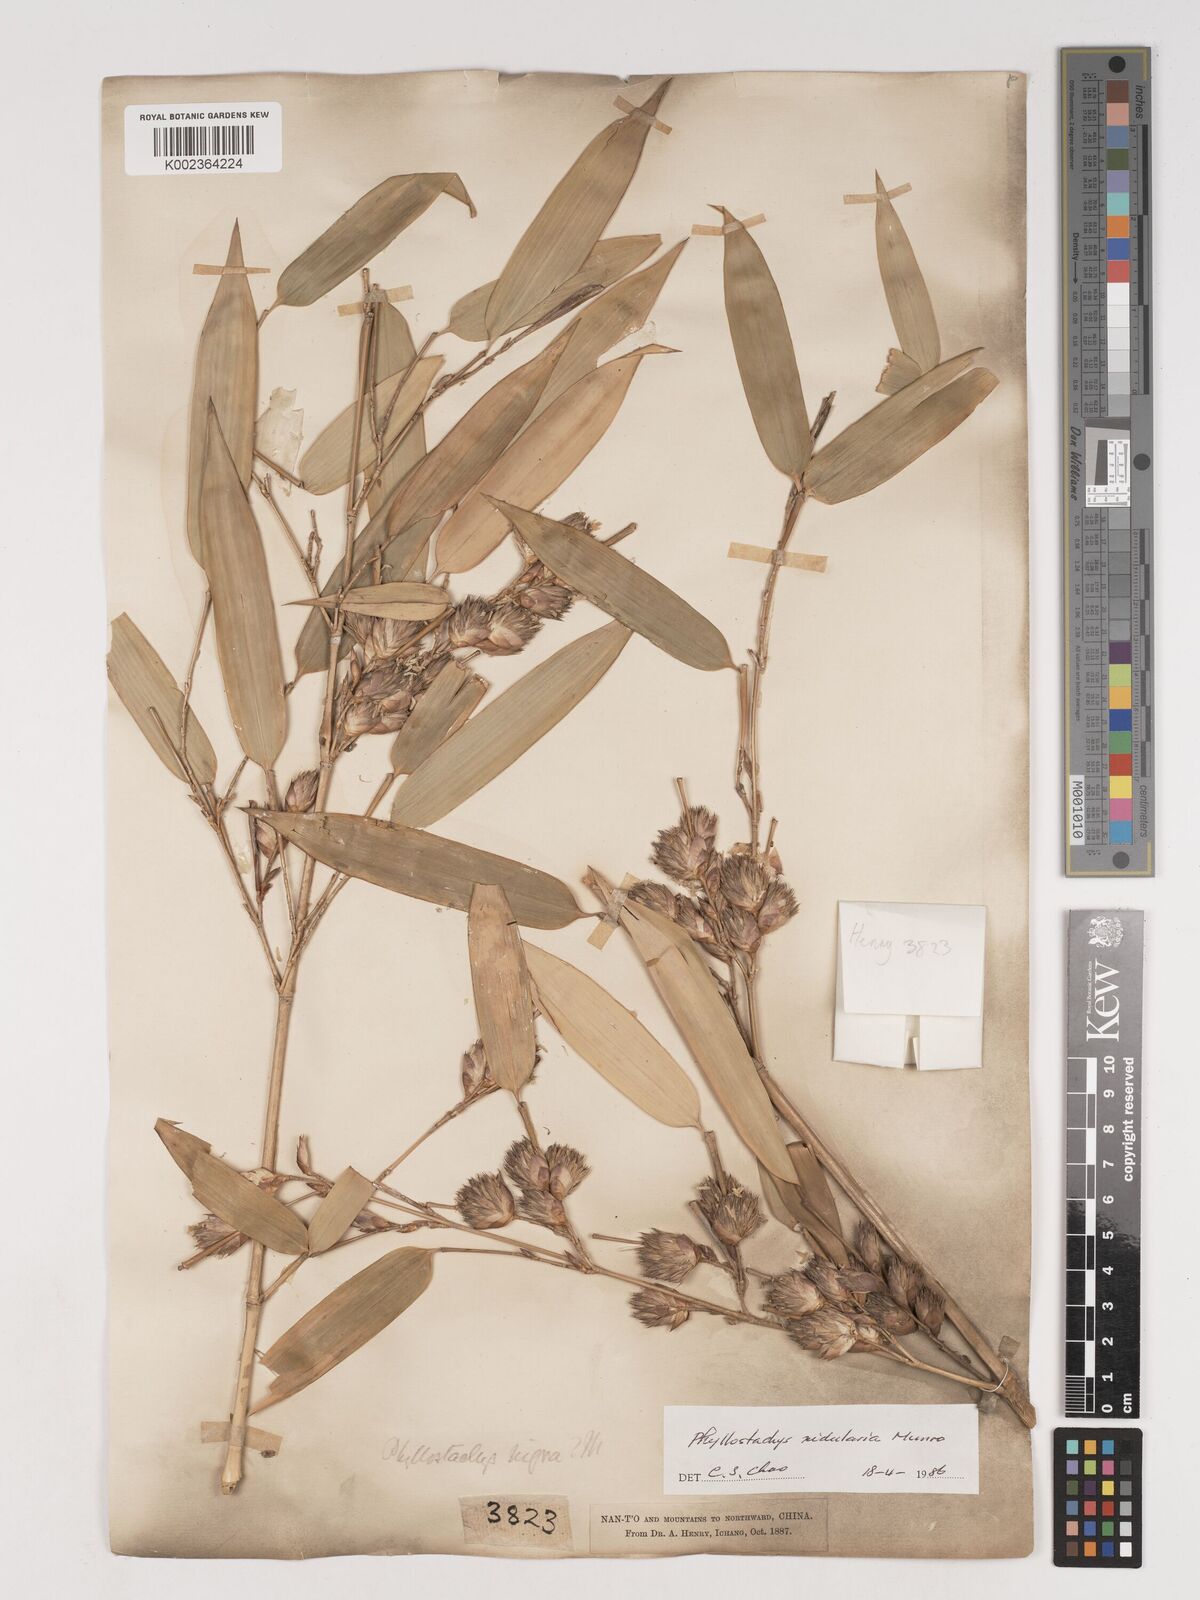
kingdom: Plantae
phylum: Tracheophyta
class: Liliopsida
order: Poales
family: Poaceae
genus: Phyllostachys
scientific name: Phyllostachys nidularia
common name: Broom bamboo
